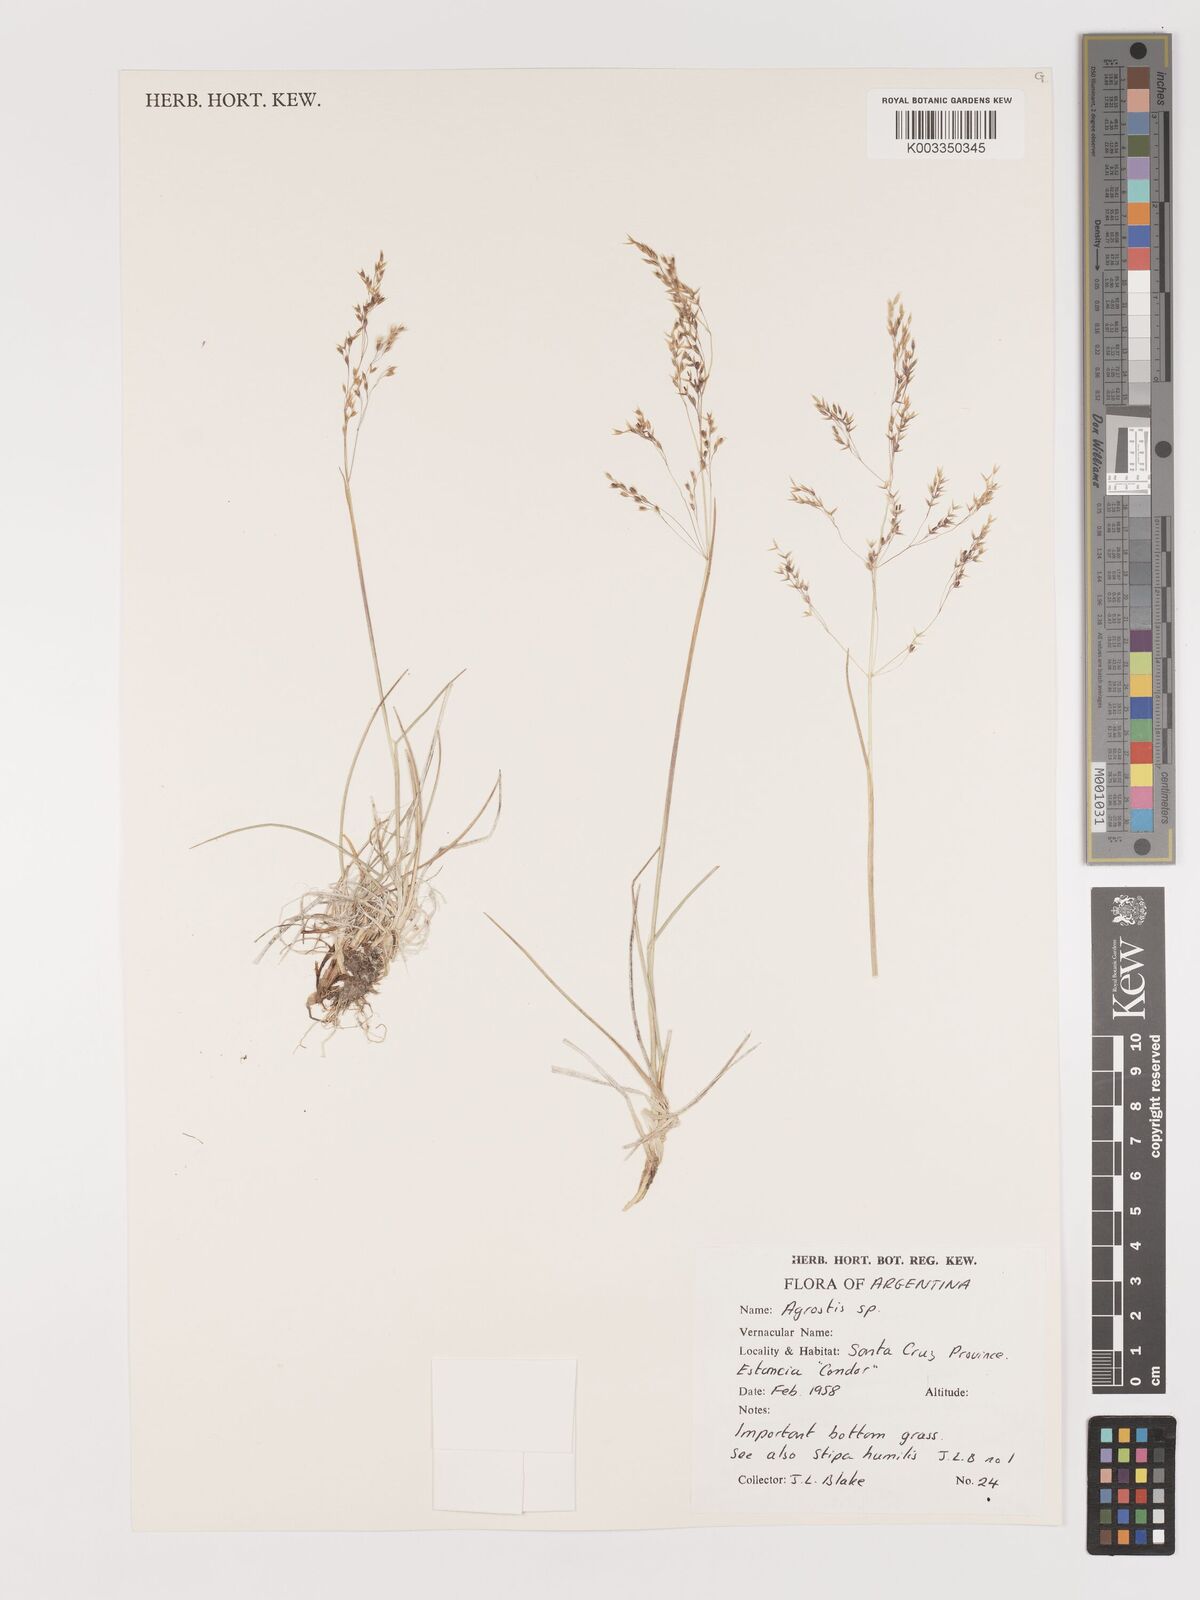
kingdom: Plantae
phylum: Tracheophyta
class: Liliopsida
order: Poales
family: Poaceae
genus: Agrostis
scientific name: Agrostis
